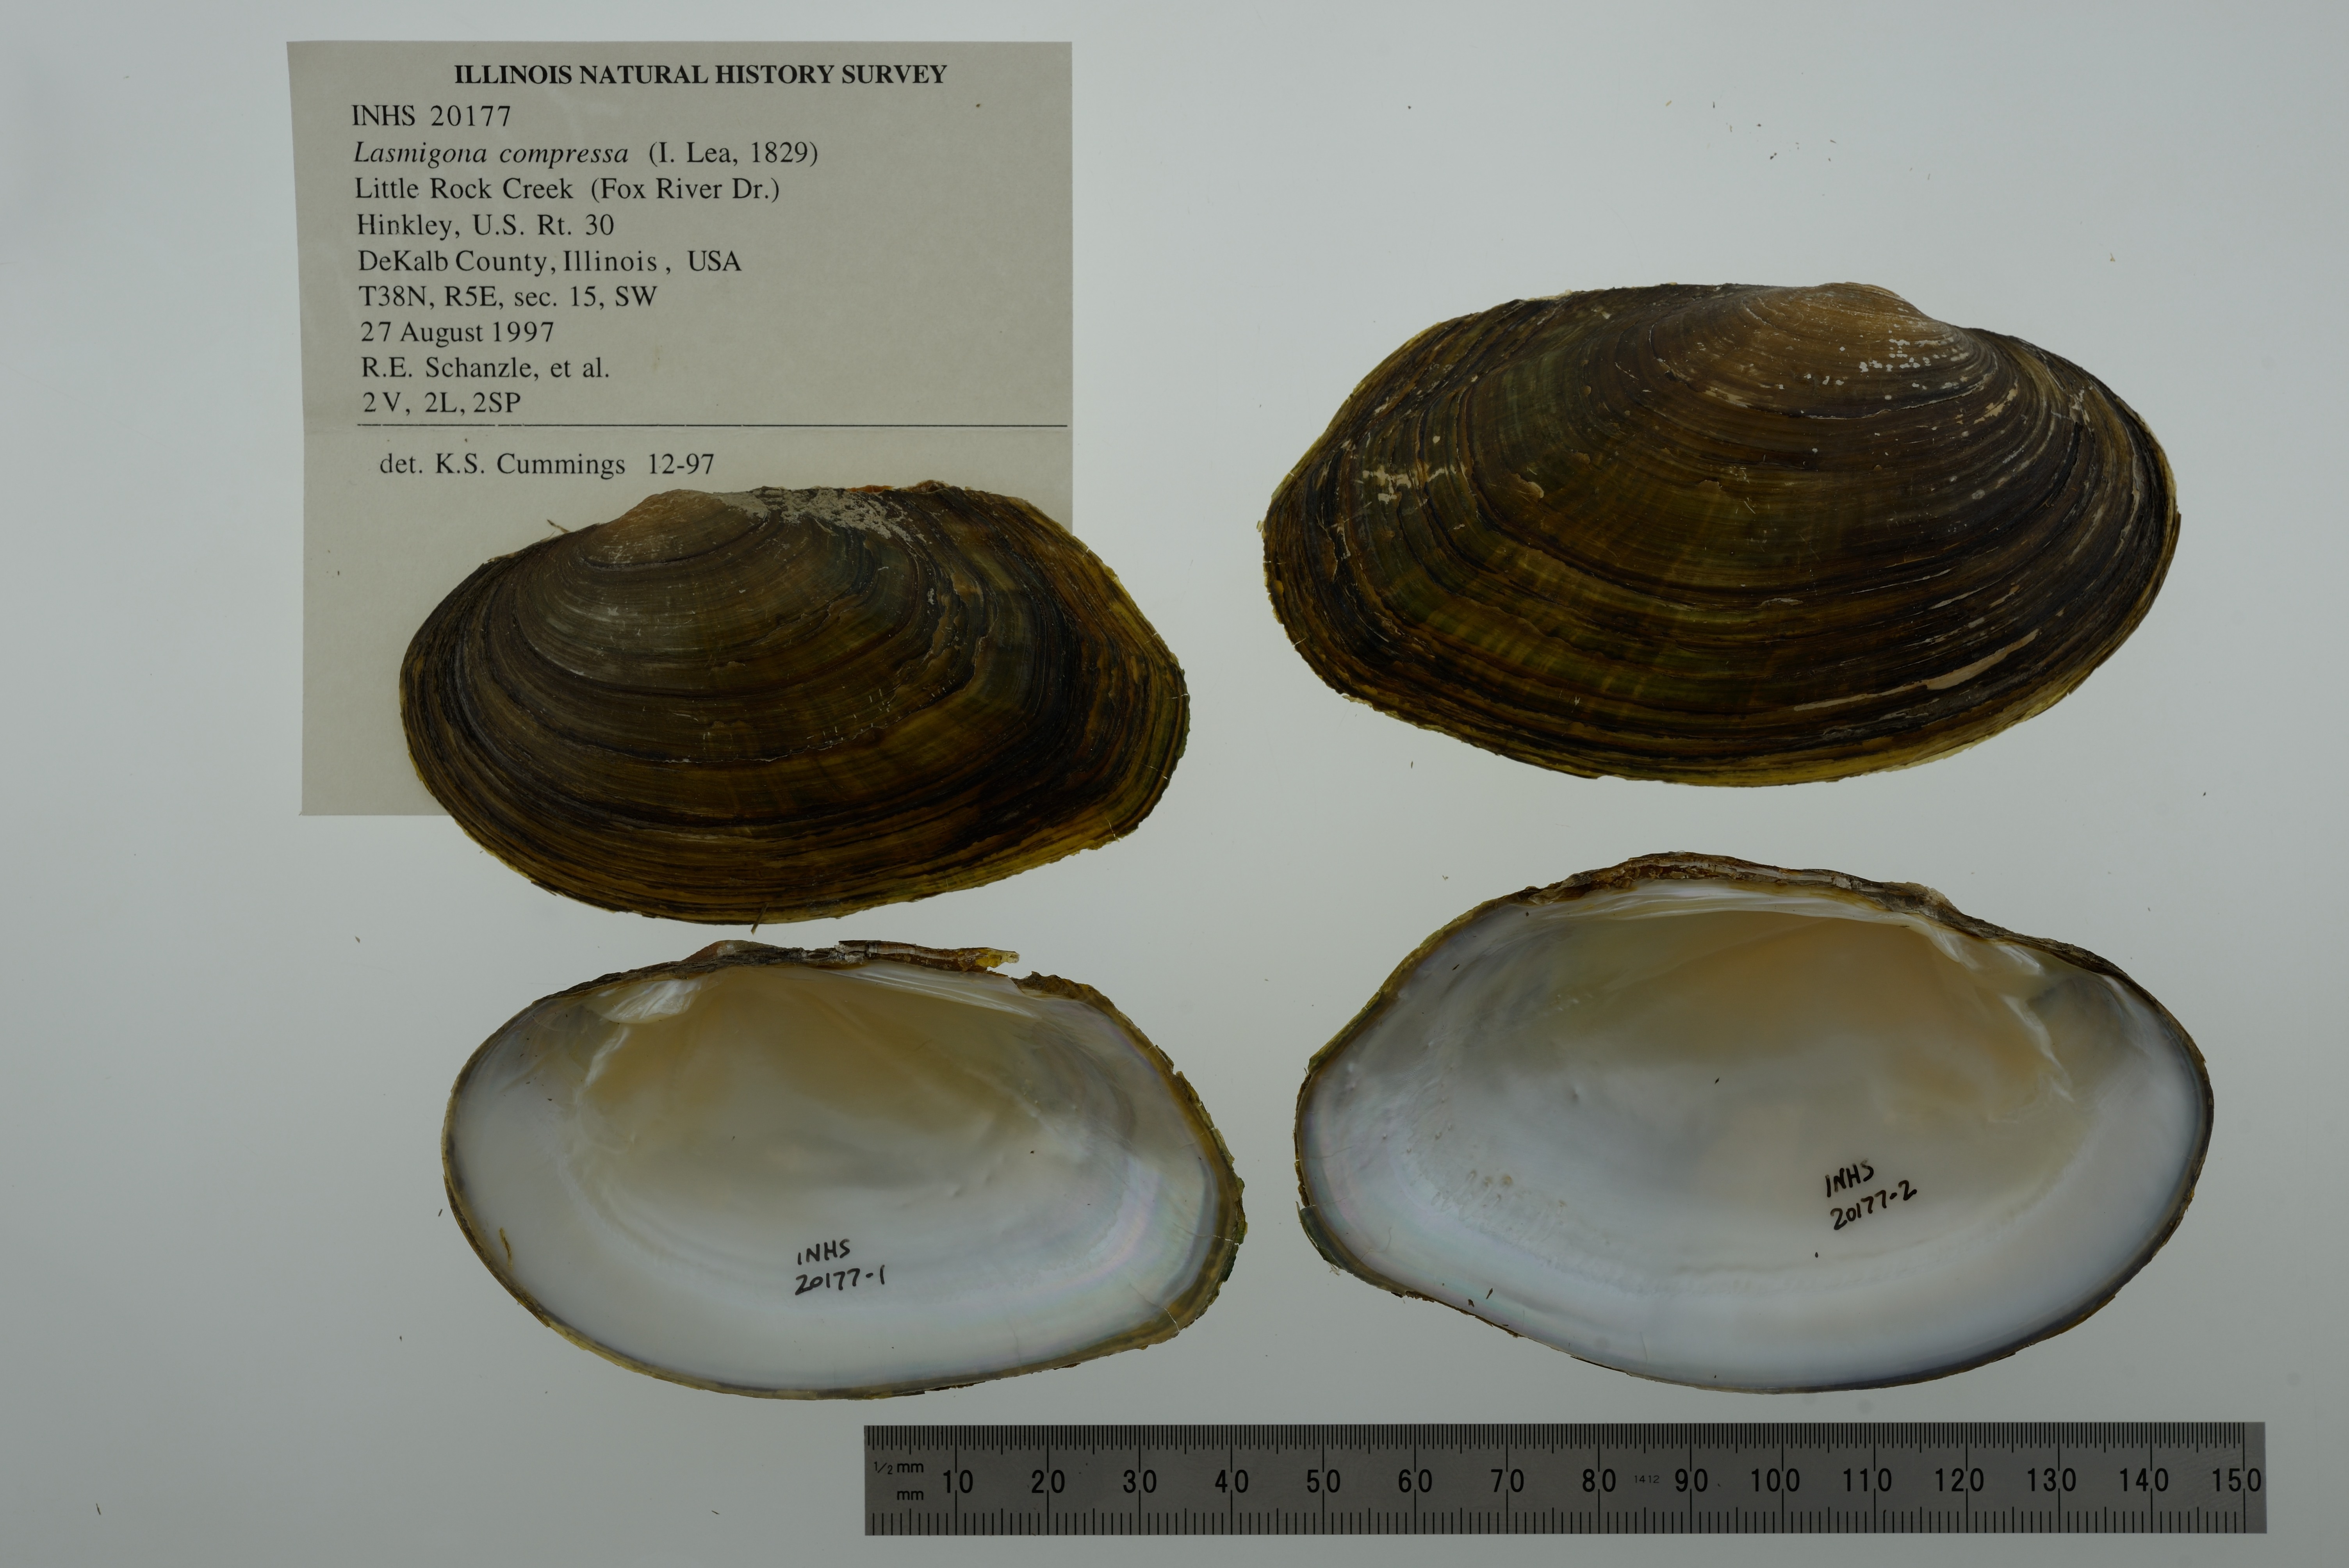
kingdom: Animalia
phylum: Mollusca
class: Bivalvia
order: Unionida
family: Unionidae
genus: Lasmigona
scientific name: Lasmigona compressa
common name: Creek heelsplitter
